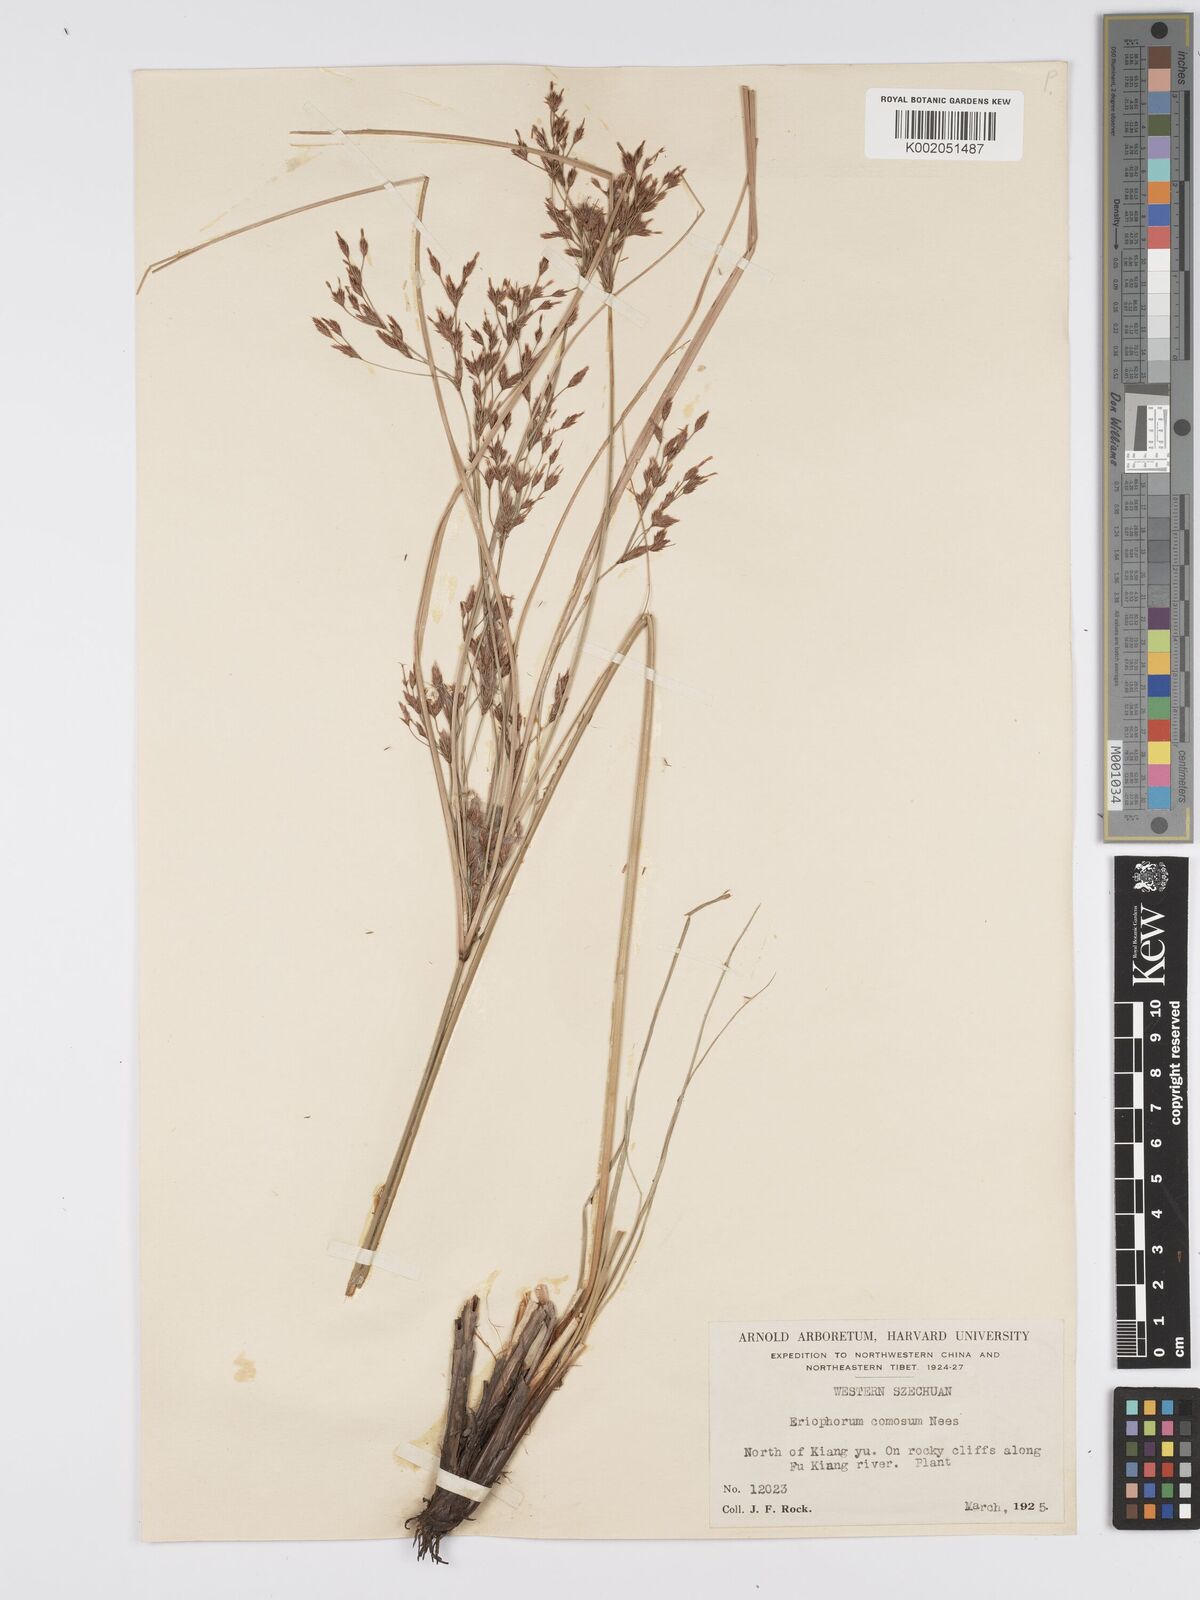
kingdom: Plantae
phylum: Tracheophyta
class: Liliopsida
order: Poales
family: Cyperaceae
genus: Erioscirpus
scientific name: Erioscirpus comosus
